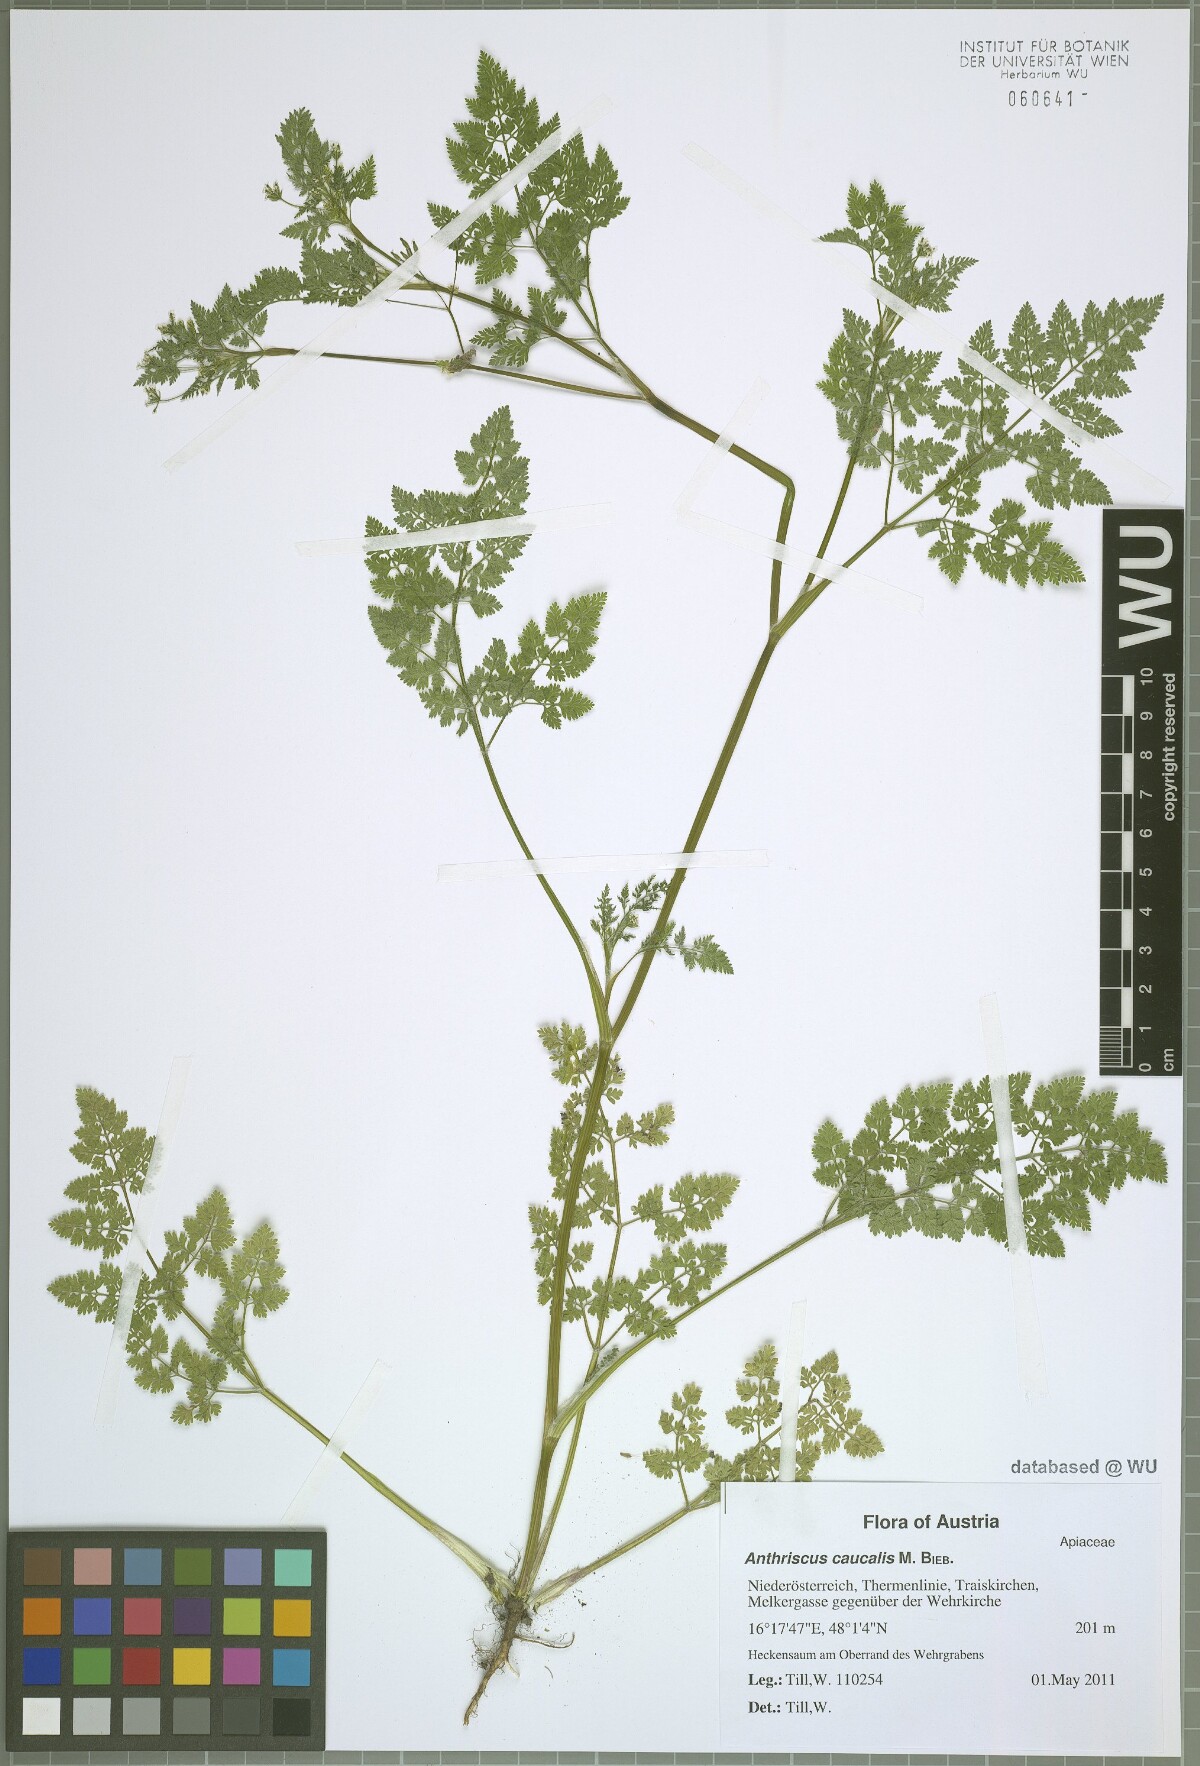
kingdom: Plantae
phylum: Tracheophyta
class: Magnoliopsida
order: Apiales
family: Apiaceae
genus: Anthriscus
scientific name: Anthriscus caucalis
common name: Bur chervil
